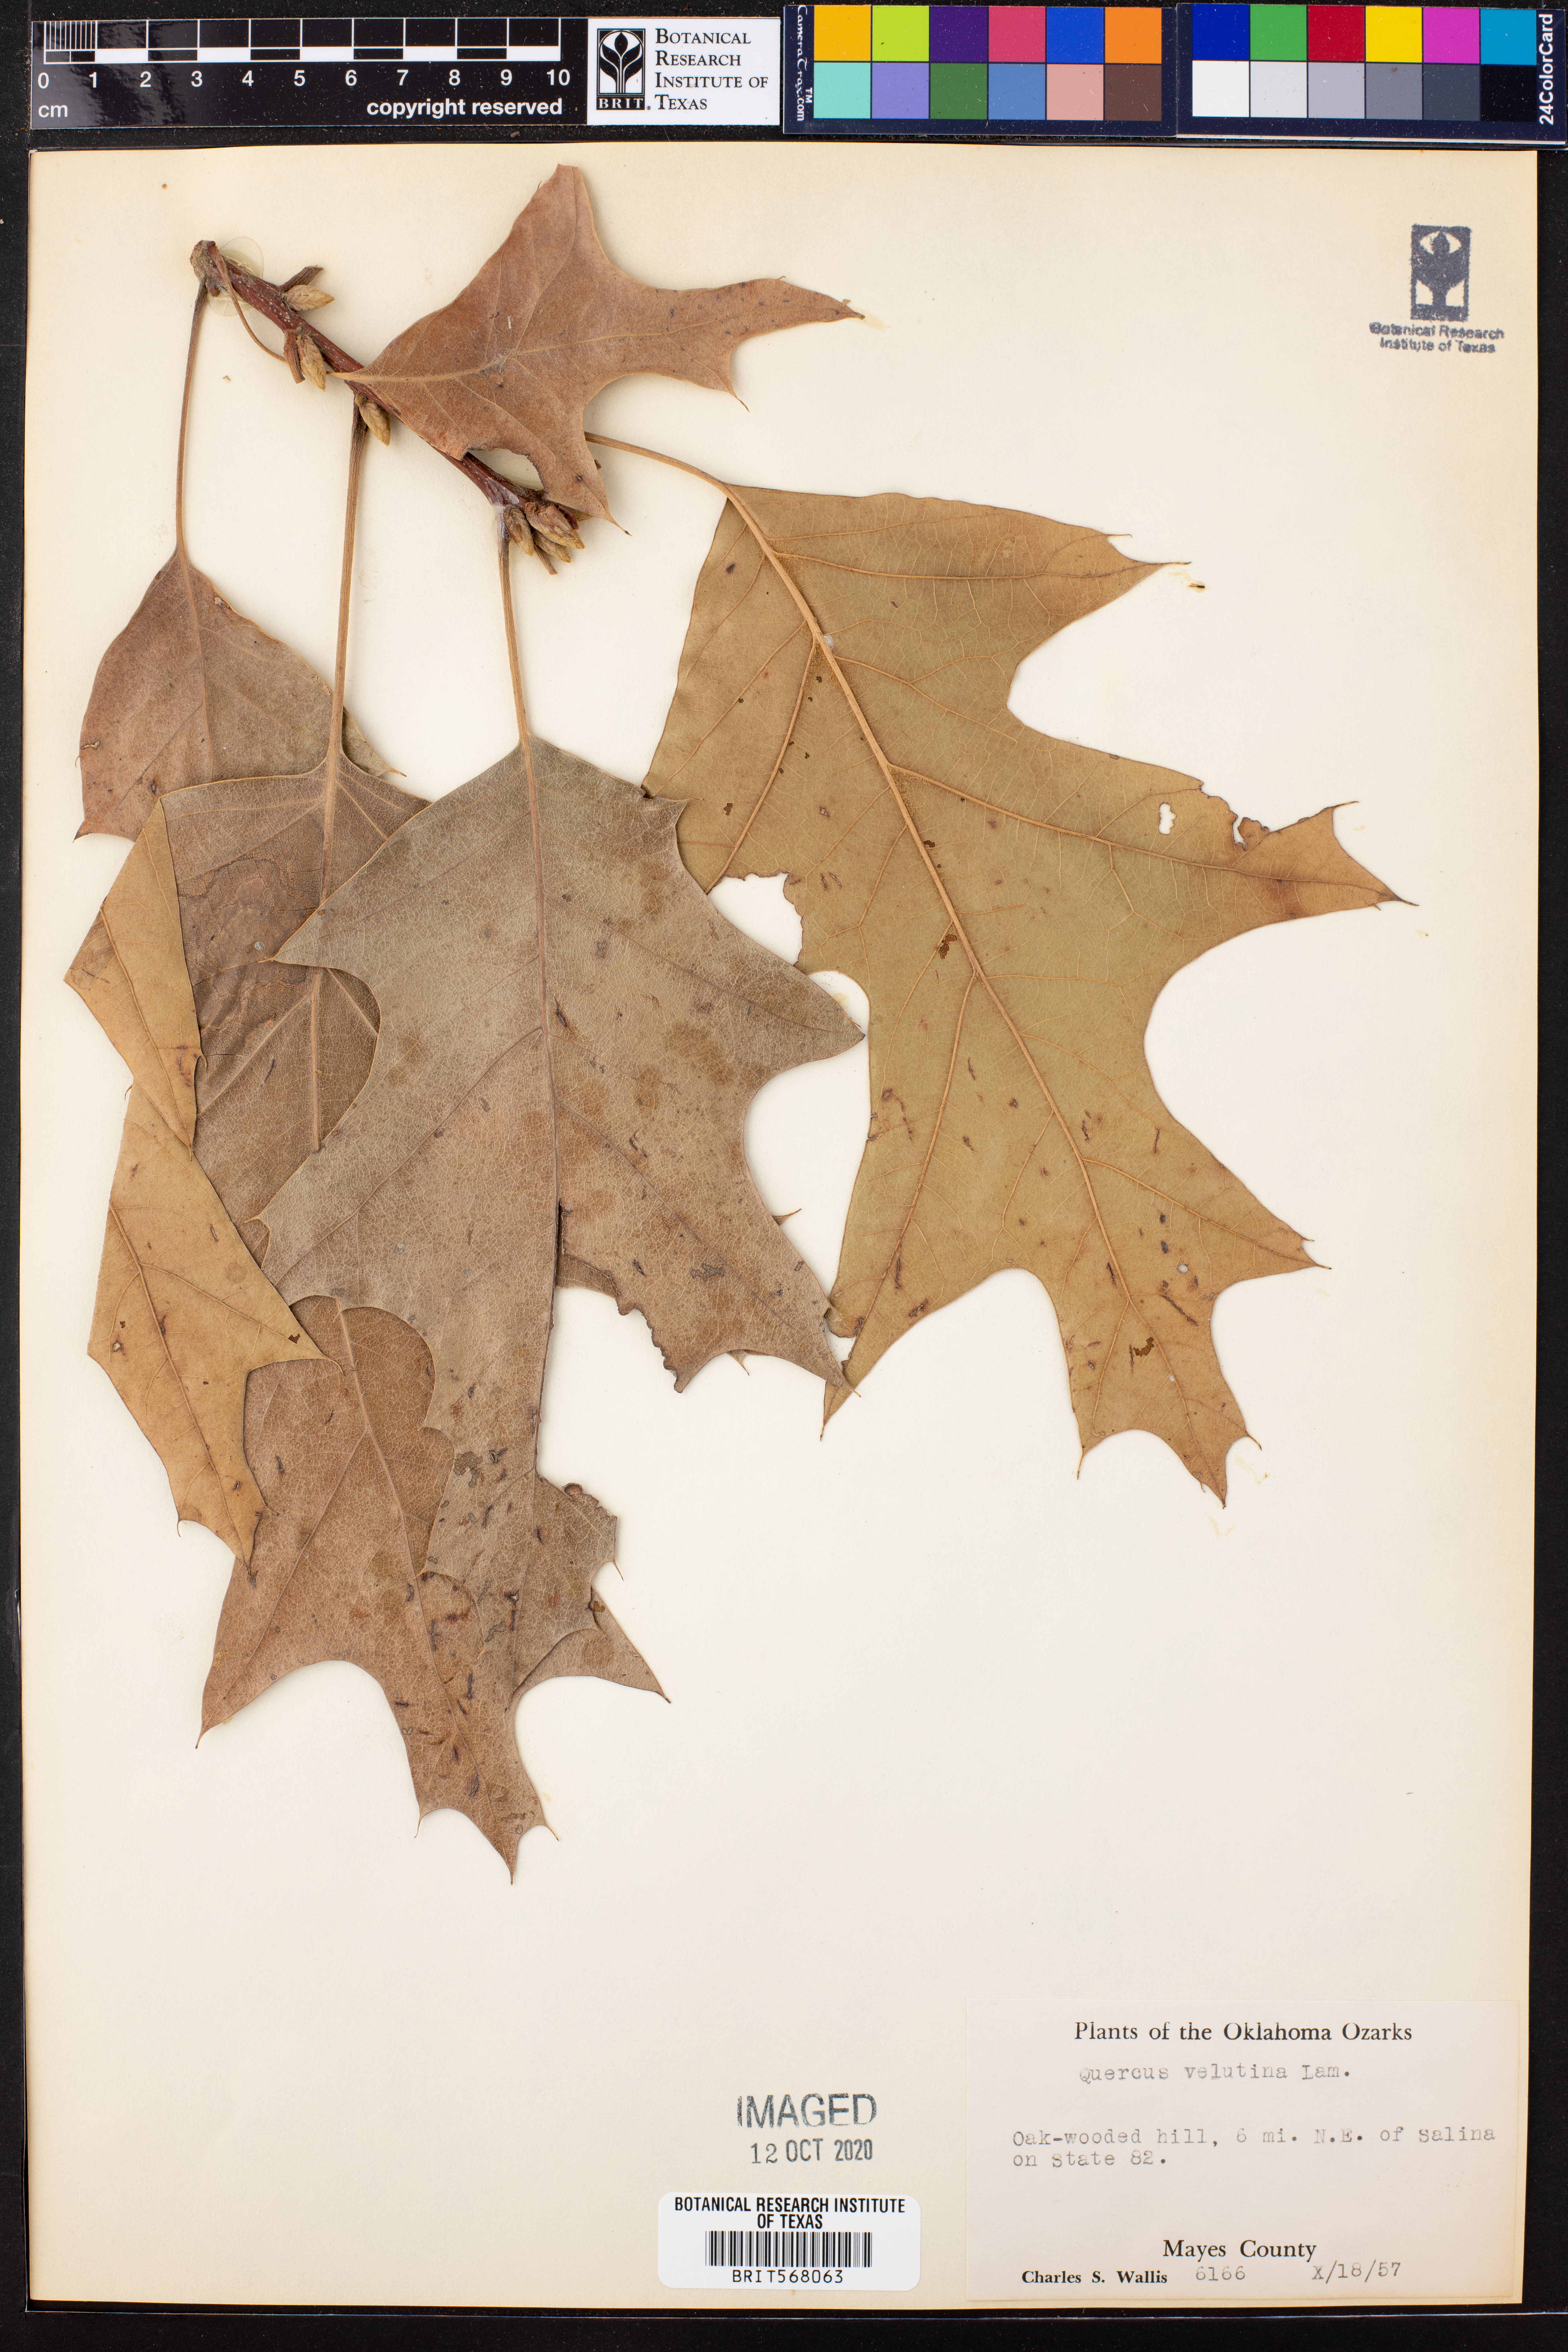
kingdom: Plantae
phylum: Tracheophyta
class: Magnoliopsida
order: Fagales
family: Fagaceae
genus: Quercus
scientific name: Quercus velutina
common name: Black oak
